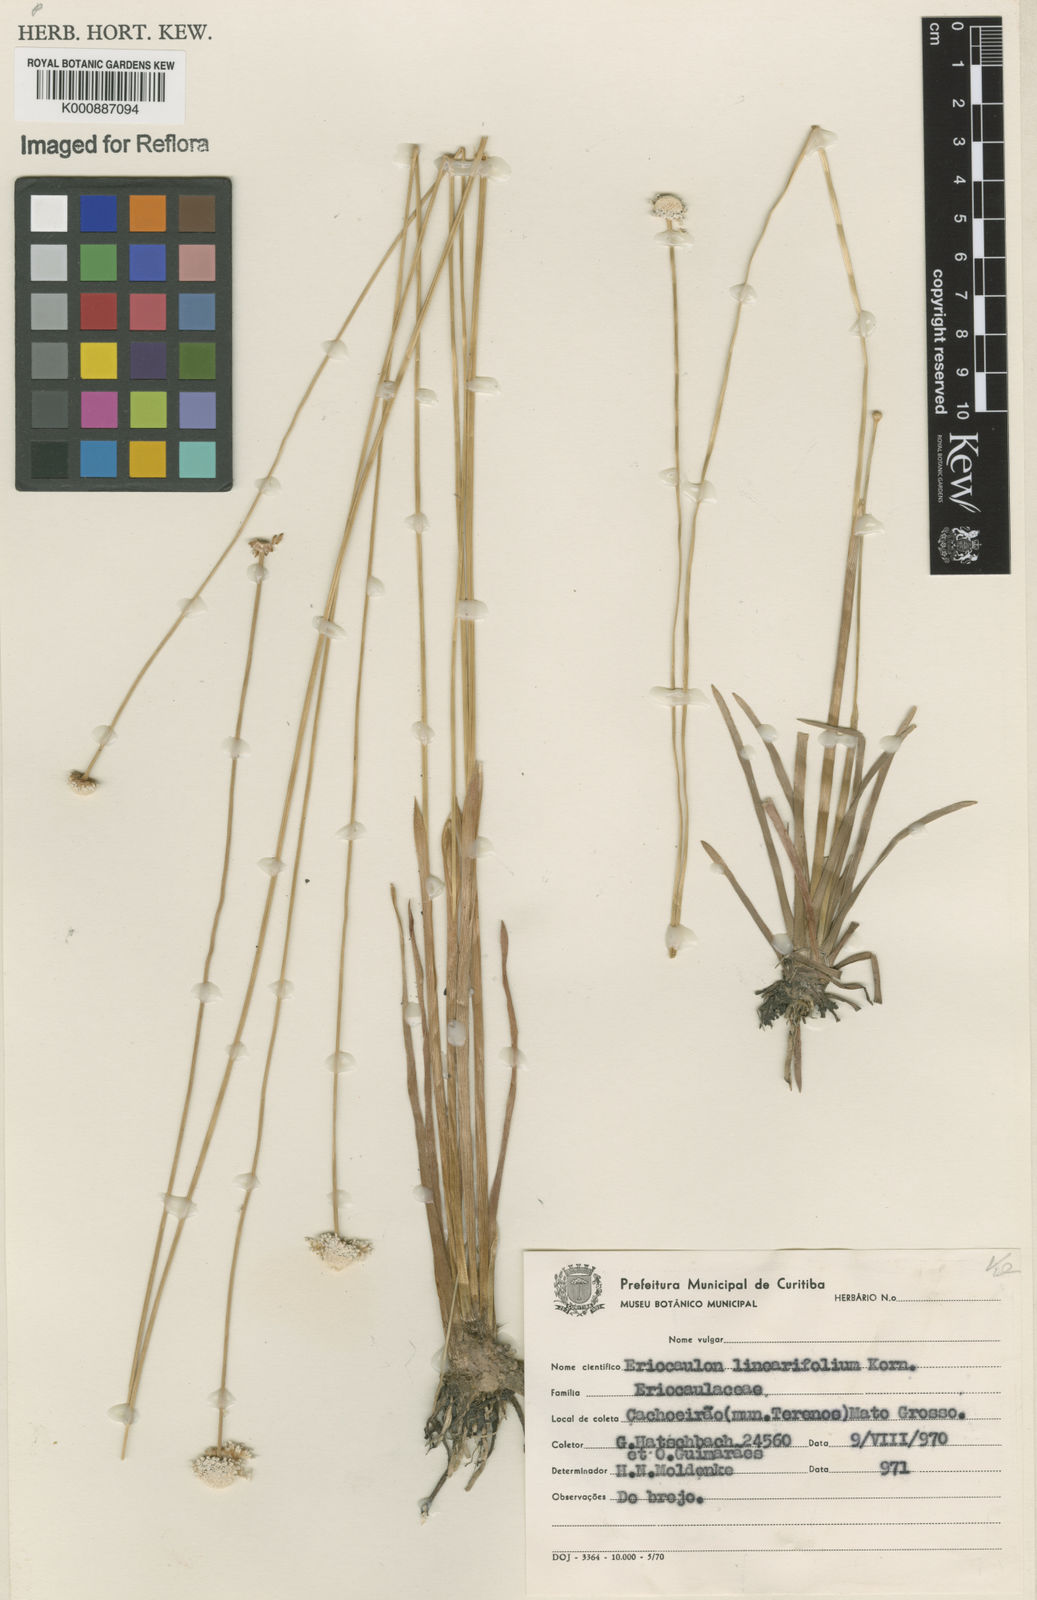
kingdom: Plantae
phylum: Tracheophyta
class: Liliopsida
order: Poales
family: Eriocaulaceae
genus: Eriocaulon
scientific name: Eriocaulon
